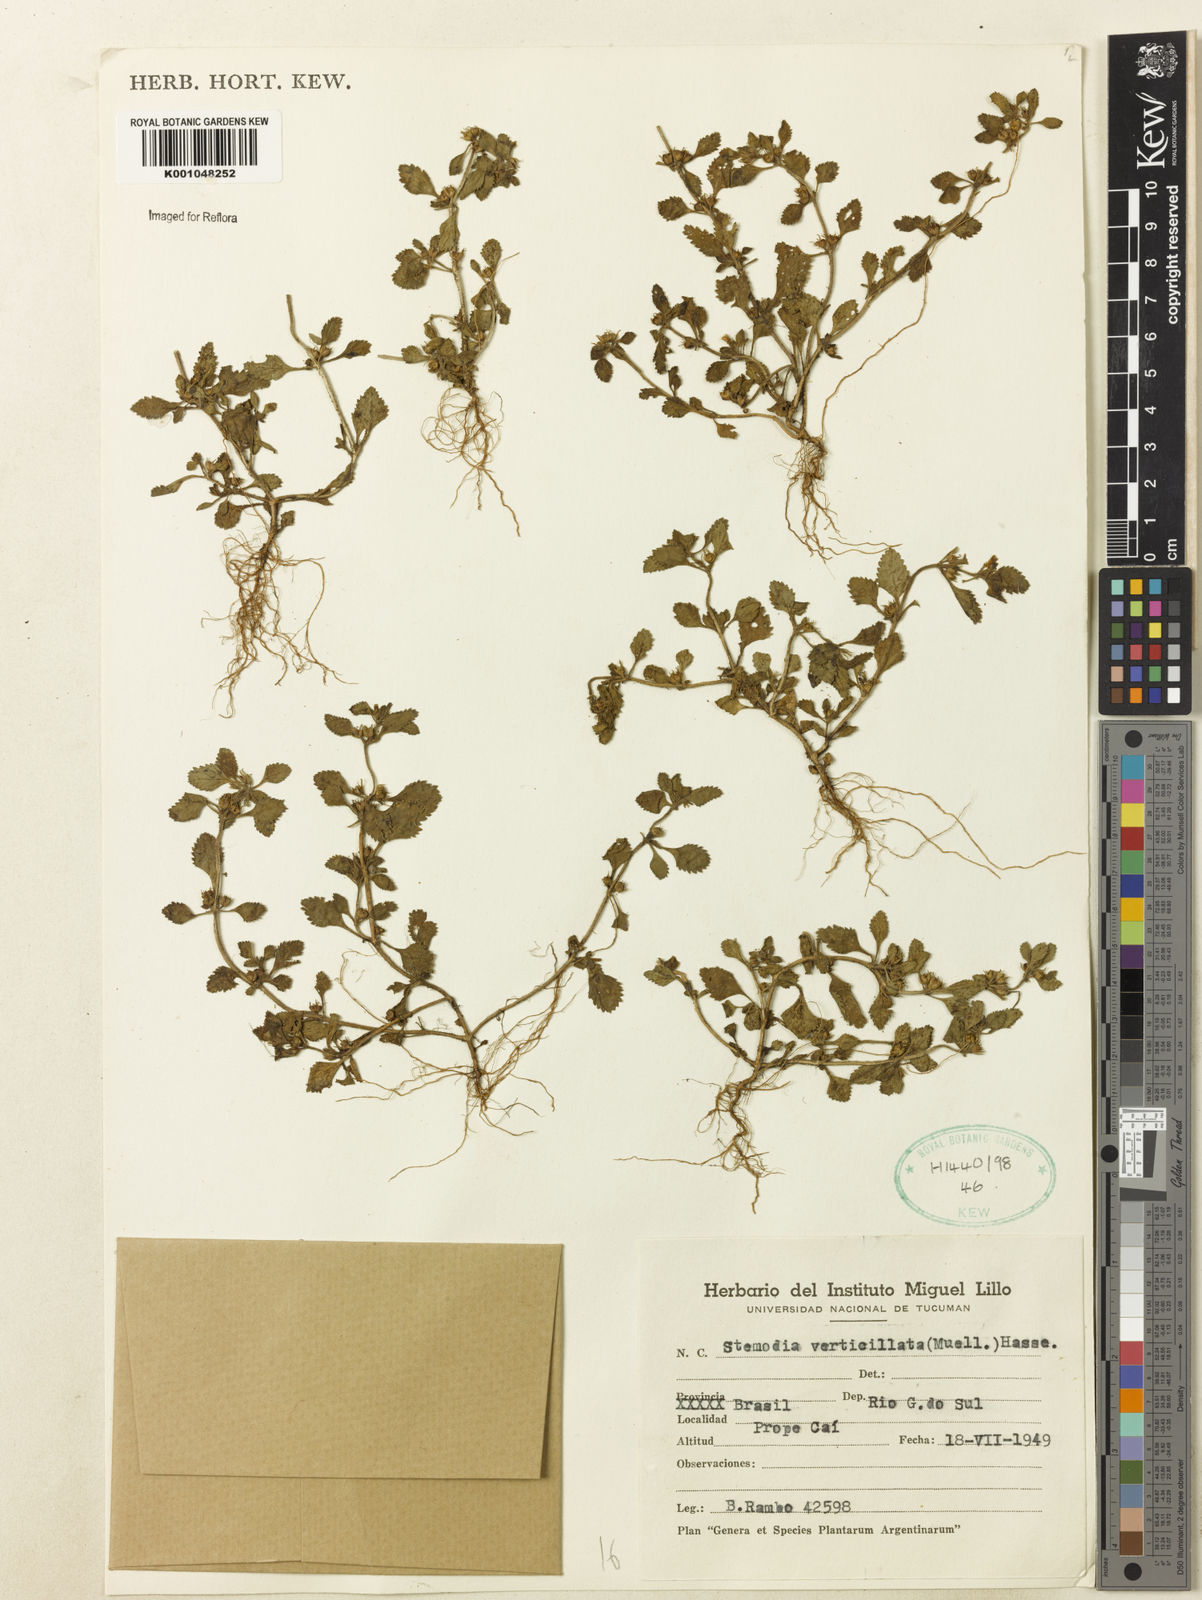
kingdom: Plantae
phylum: Tracheophyta
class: Magnoliopsida
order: Lamiales
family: Plantaginaceae
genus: Stemodia
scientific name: Stemodia verticillata
